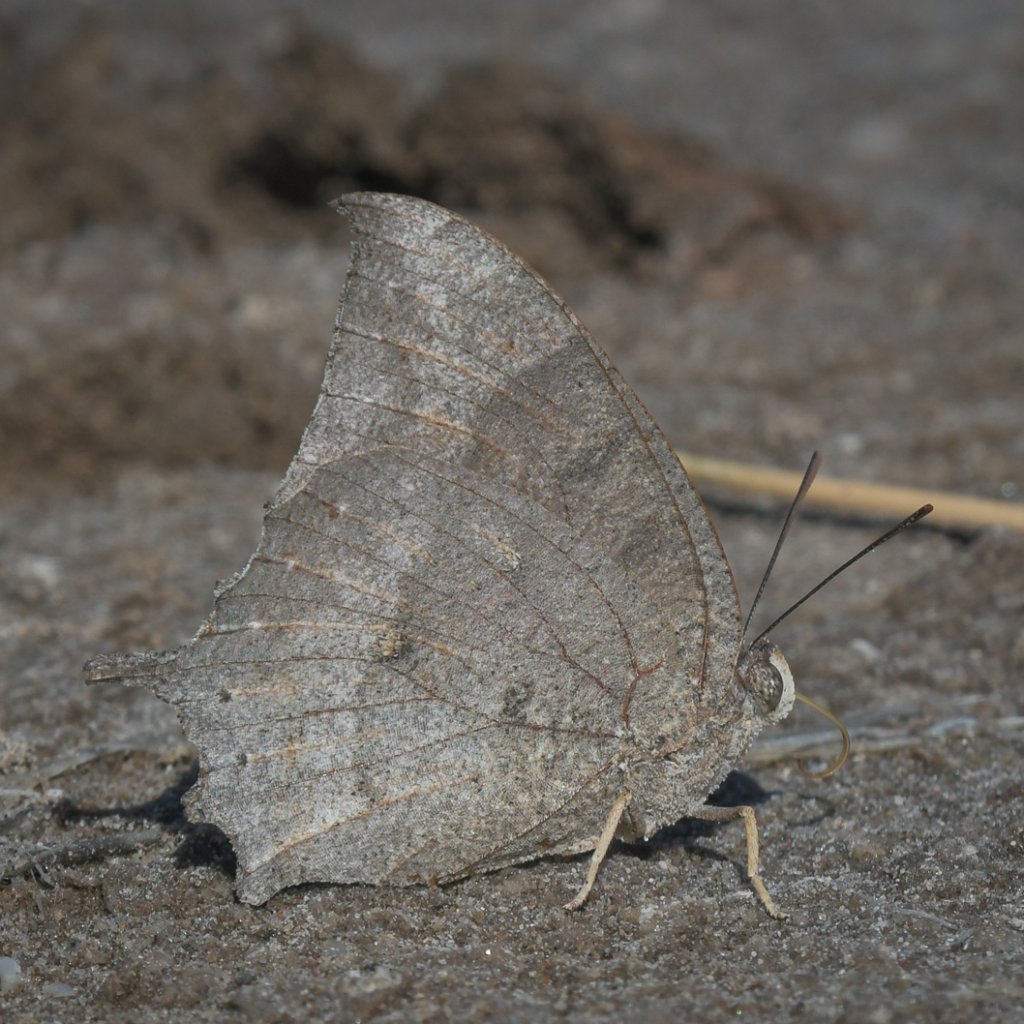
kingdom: Animalia
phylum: Arthropoda
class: Insecta
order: Lepidoptera
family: Nymphalidae
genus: Anaea
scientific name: Anaea aidea
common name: Tropical Leafwing
